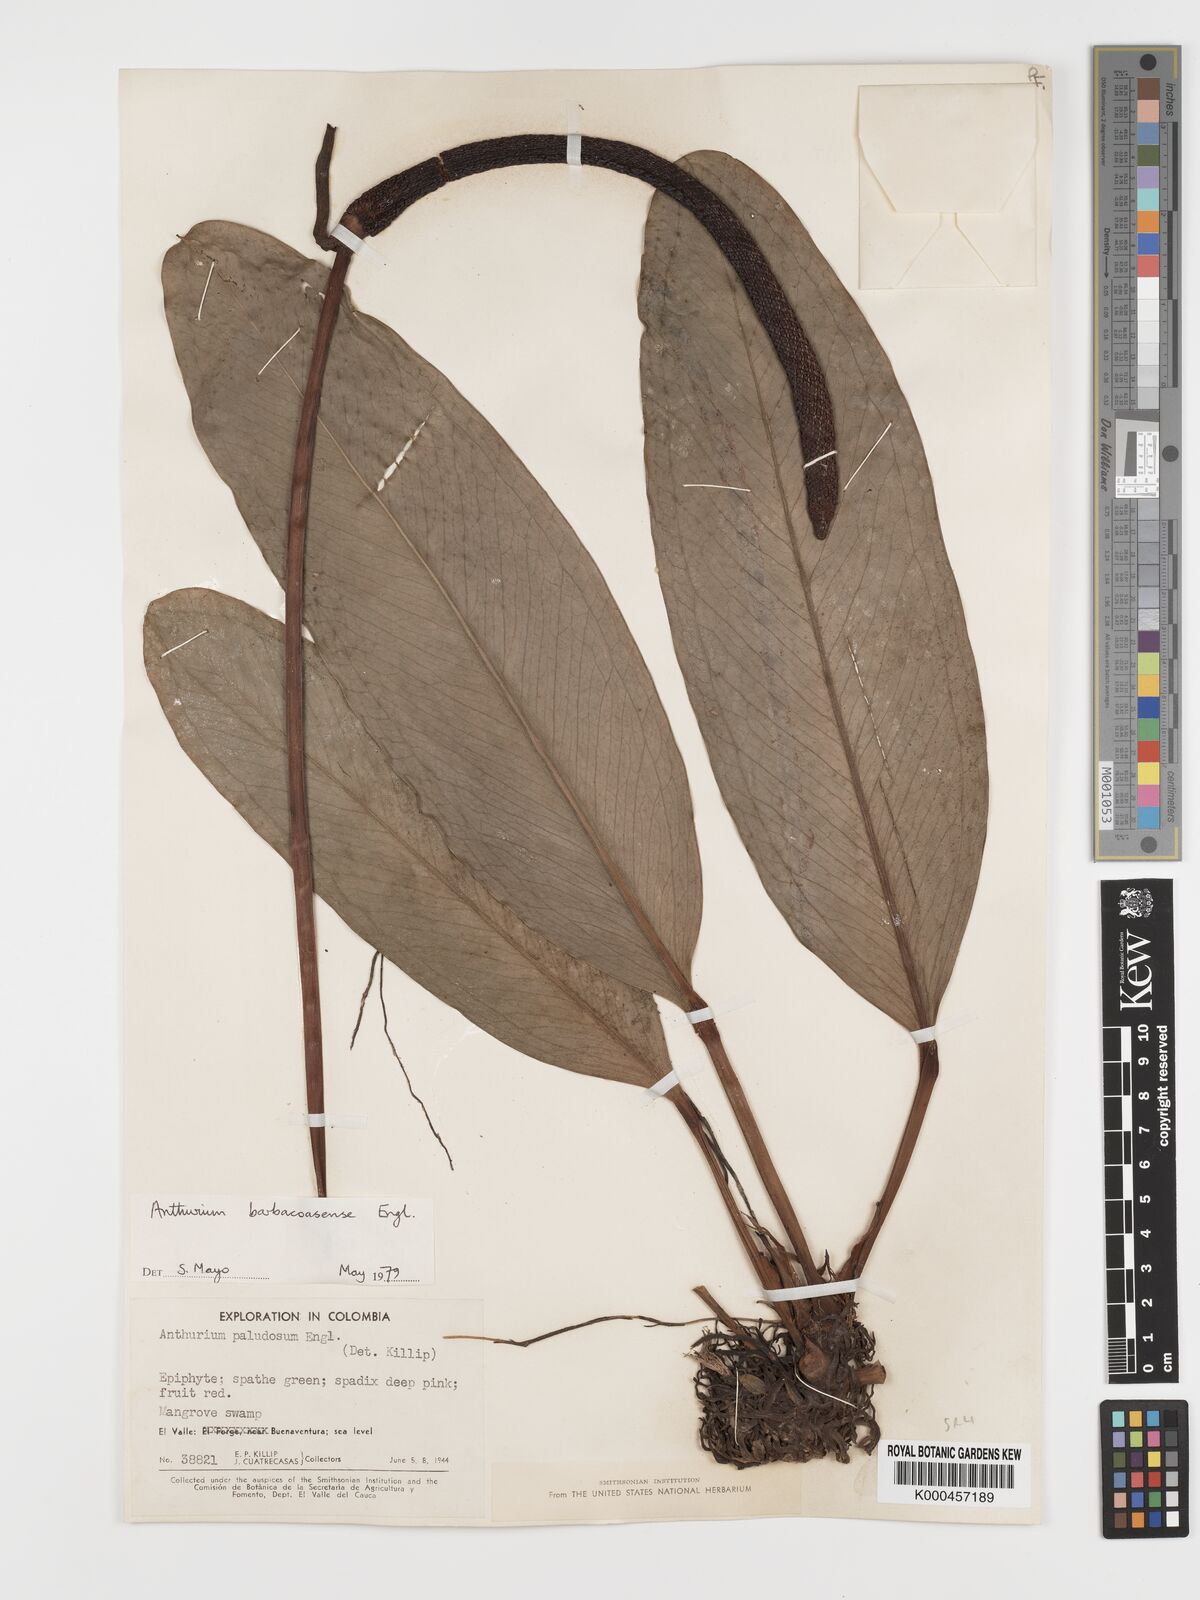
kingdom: Plantae
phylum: Tracheophyta
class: Liliopsida
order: Alismatales
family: Araceae
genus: Anthurium
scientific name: Anthurium barbacoasense
